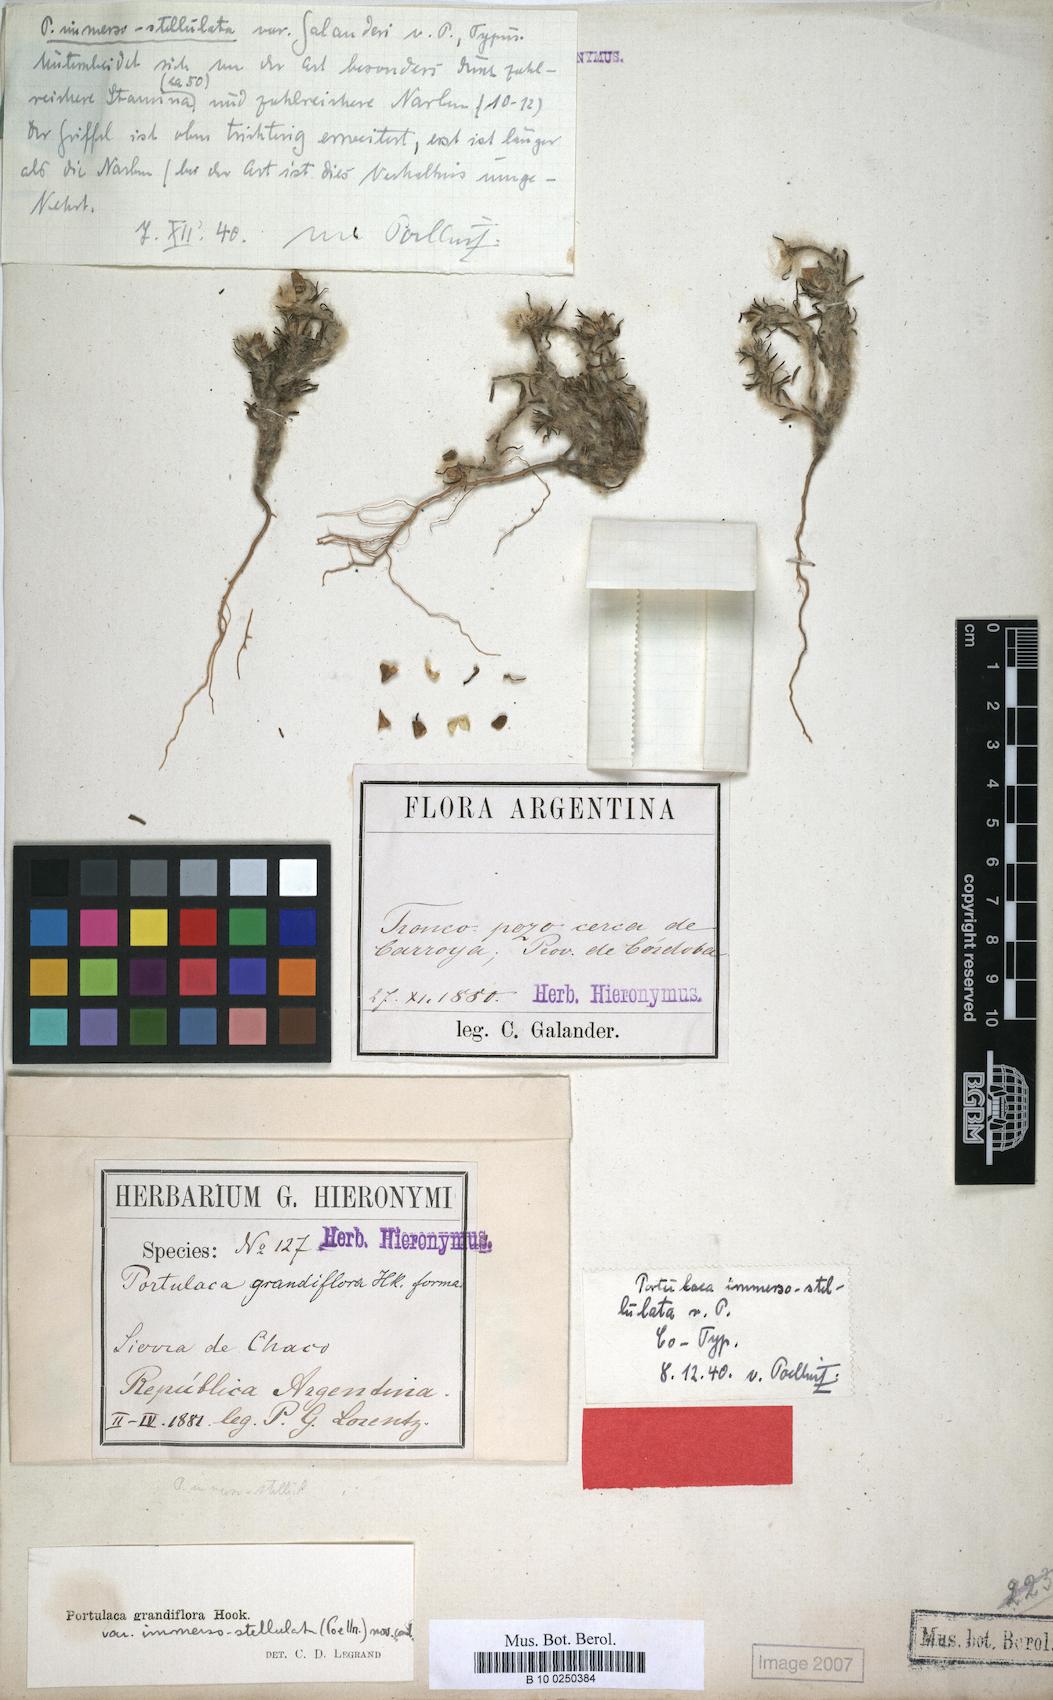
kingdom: Plantae
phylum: Tracheophyta
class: Magnoliopsida
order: Caryophyllales
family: Portulacaceae
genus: Portulaca
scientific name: Portulaca grandiflora
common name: Moss-rose
